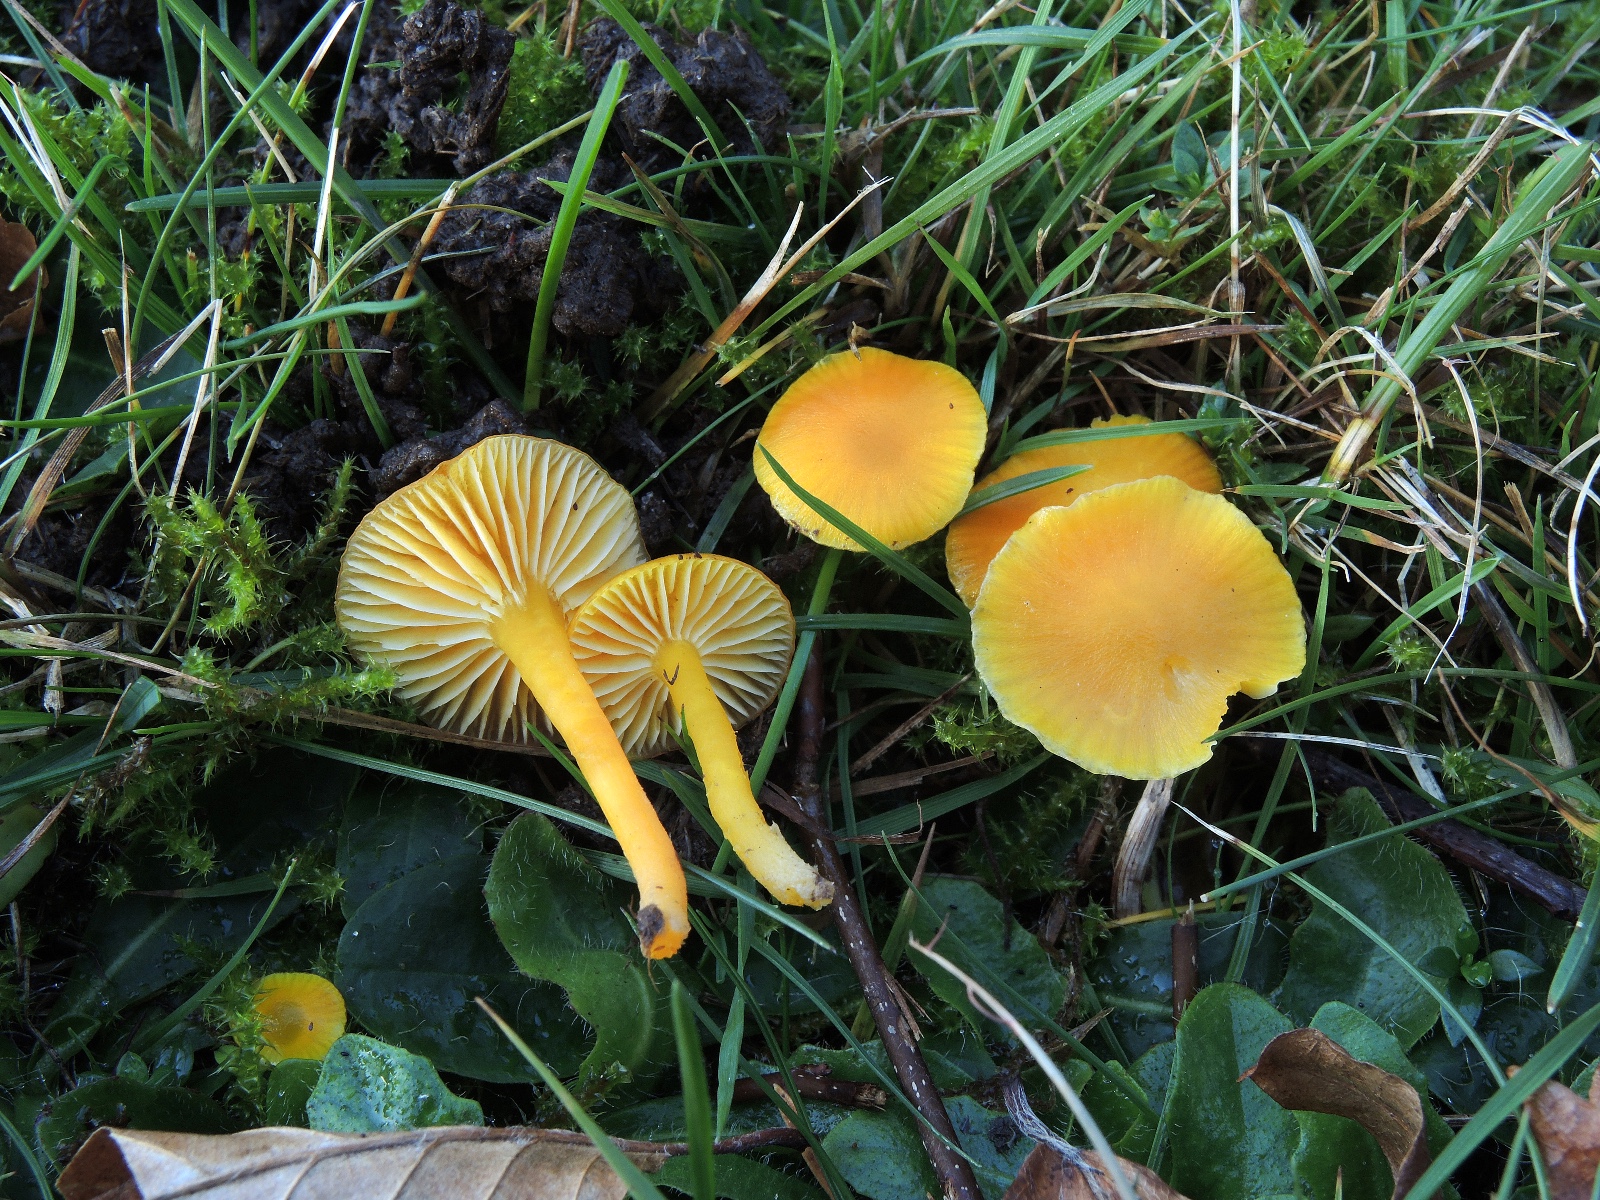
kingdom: Fungi
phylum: Basidiomycota
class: Agaricomycetes
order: Agaricales
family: Hygrophoraceae
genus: Hygrocybe
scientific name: Hygrocybe ceracea
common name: voksgul vokshat
